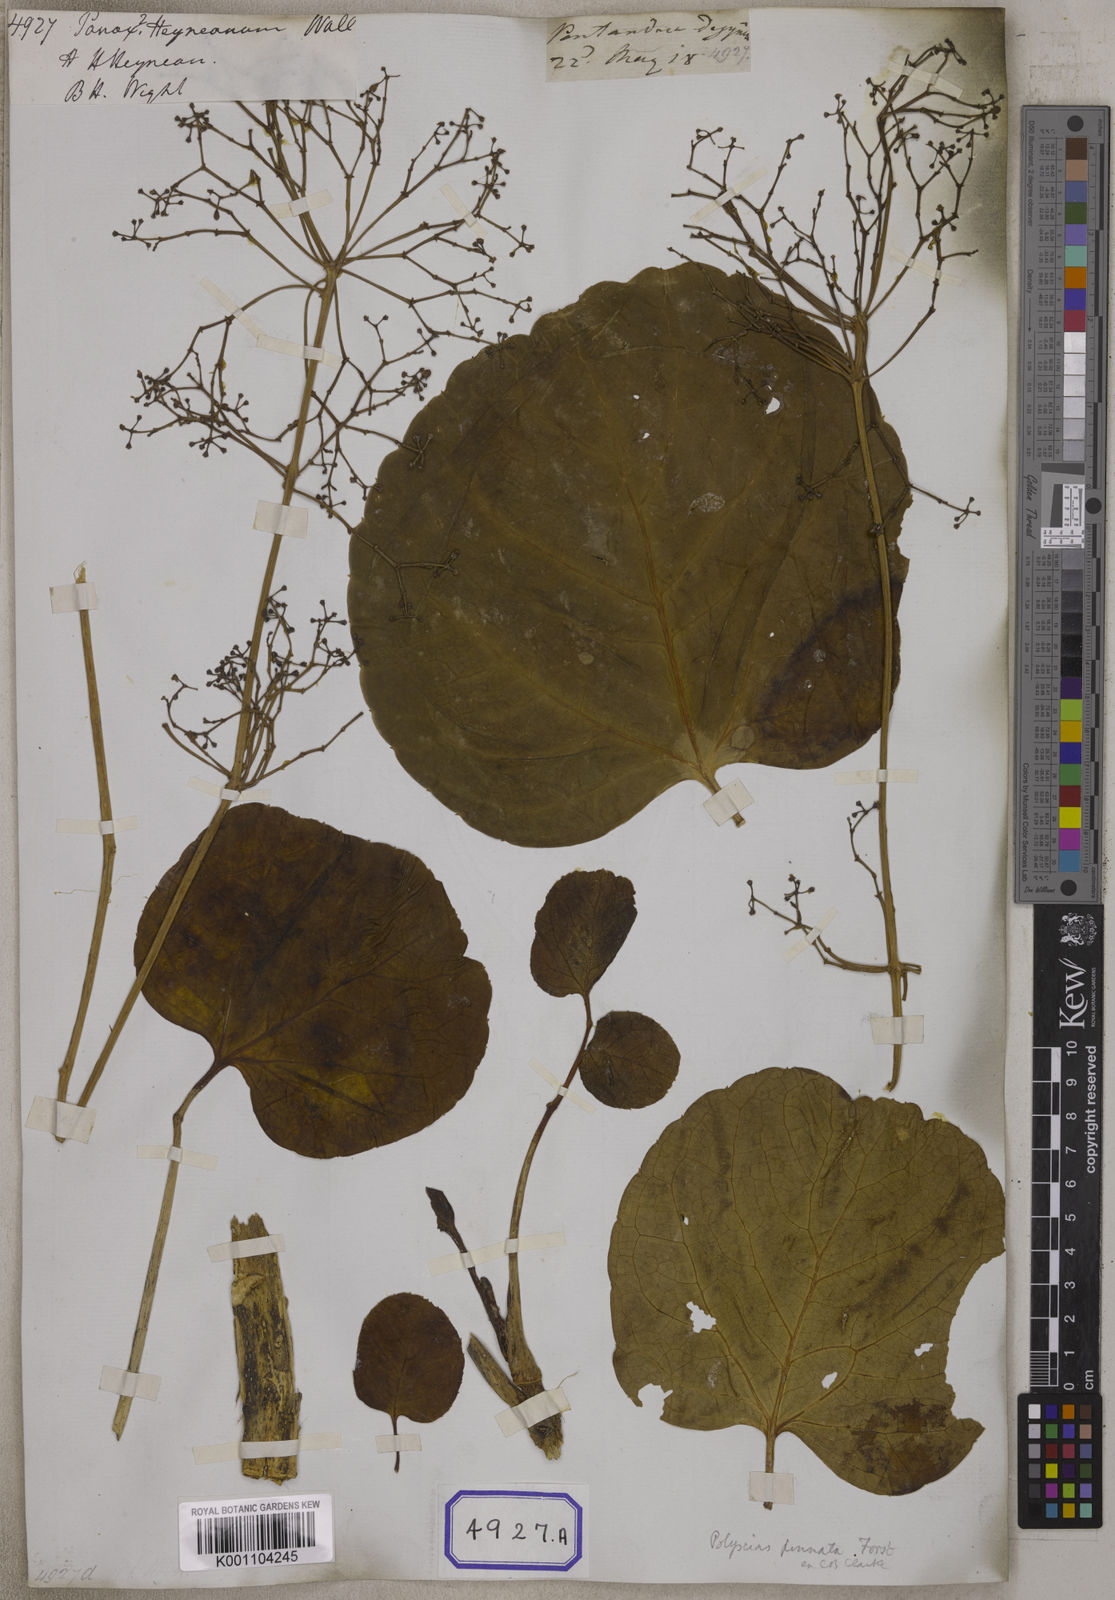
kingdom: Plantae
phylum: Tracheophyta
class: Magnoliopsida
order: Apiales
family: Araliaceae
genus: Panax
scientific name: Panax
